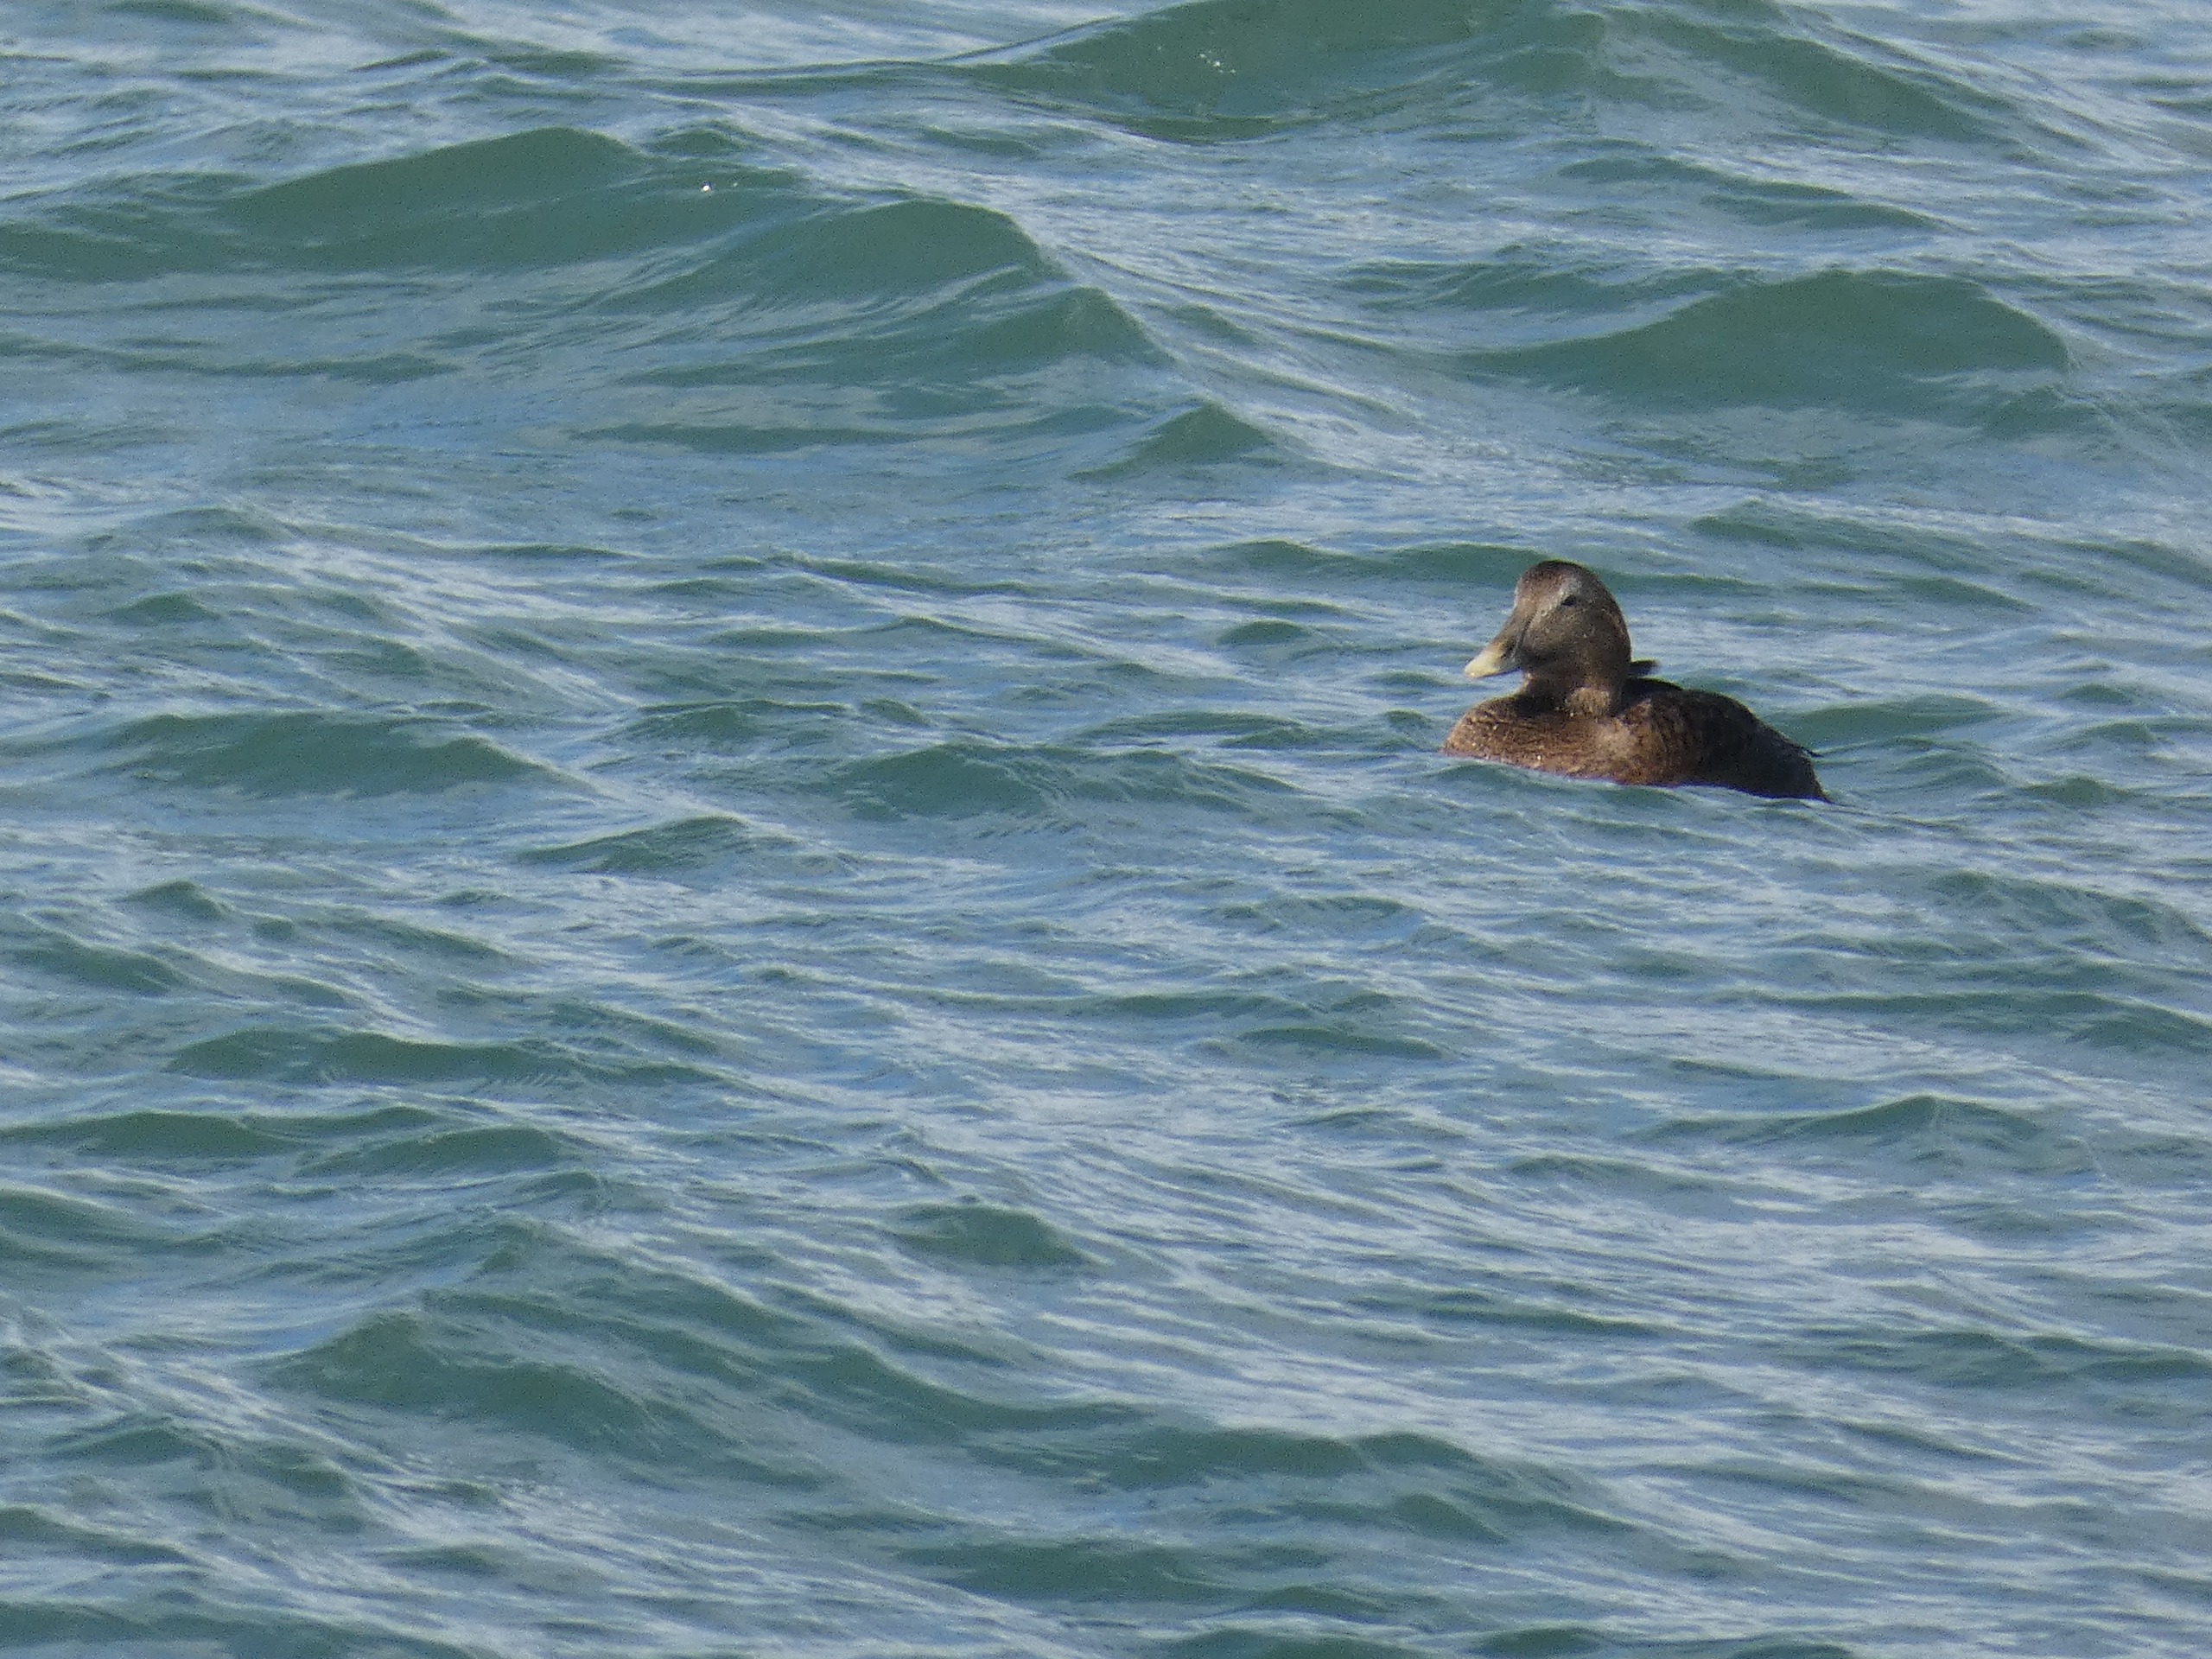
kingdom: Animalia
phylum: Chordata
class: Aves
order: Anseriformes
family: Anatidae
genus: Somateria
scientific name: Somateria mollissima
